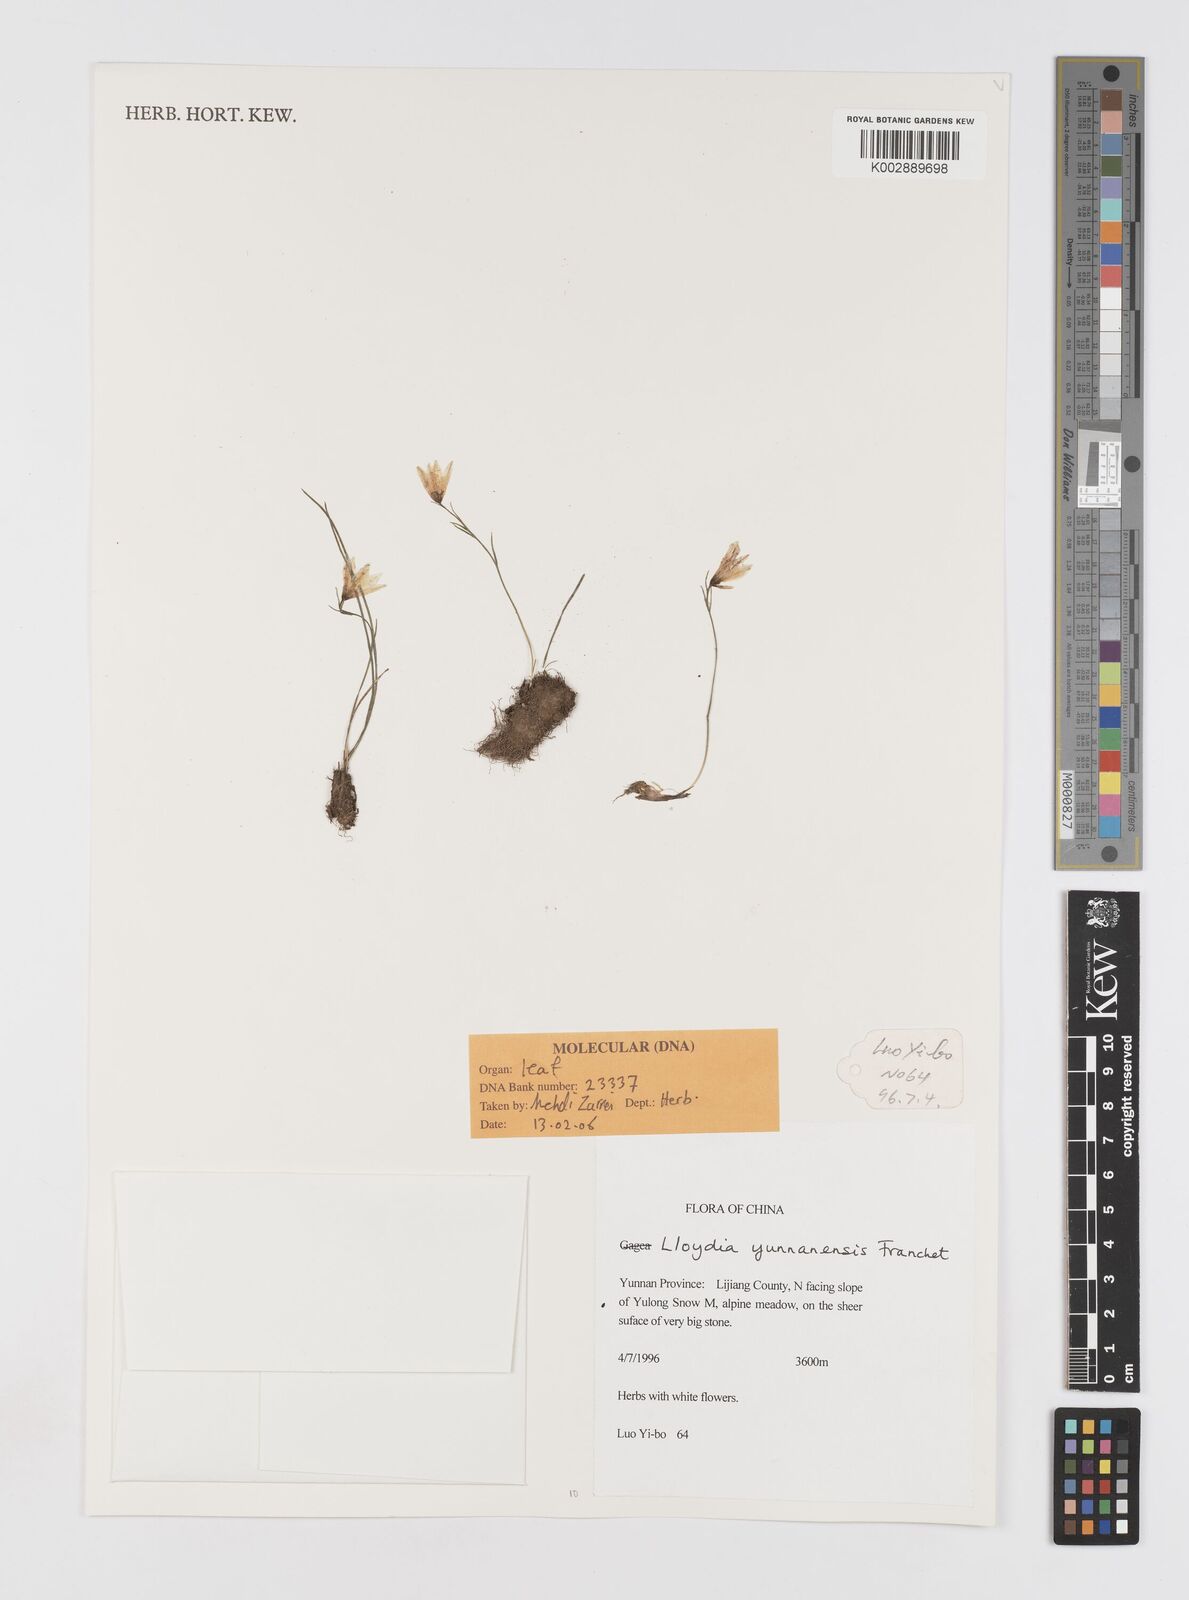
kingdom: Plantae
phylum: Tracheophyta
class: Liliopsida
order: Liliales
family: Liliaceae
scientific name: Liliaceae
